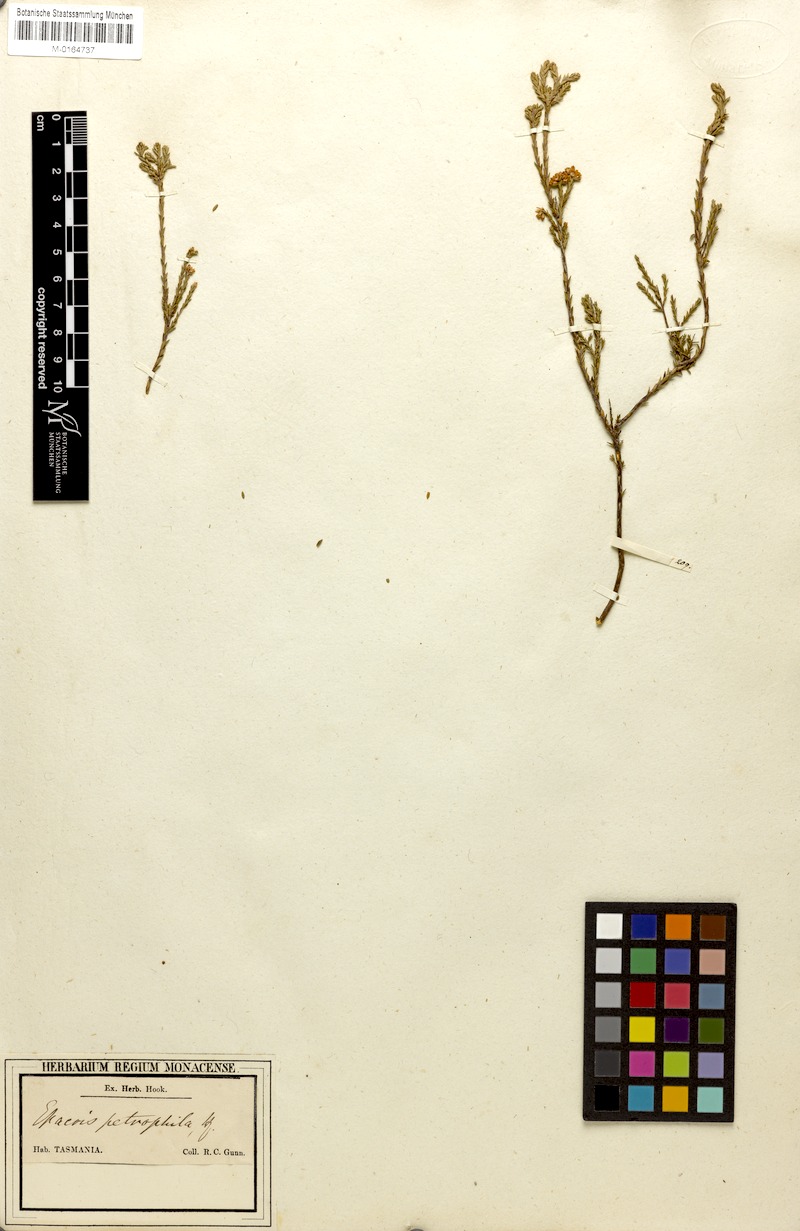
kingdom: Plantae
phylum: Tracheophyta
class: Magnoliopsida
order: Ericales
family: Ericaceae
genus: Epacris
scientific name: Epacris petrophila
